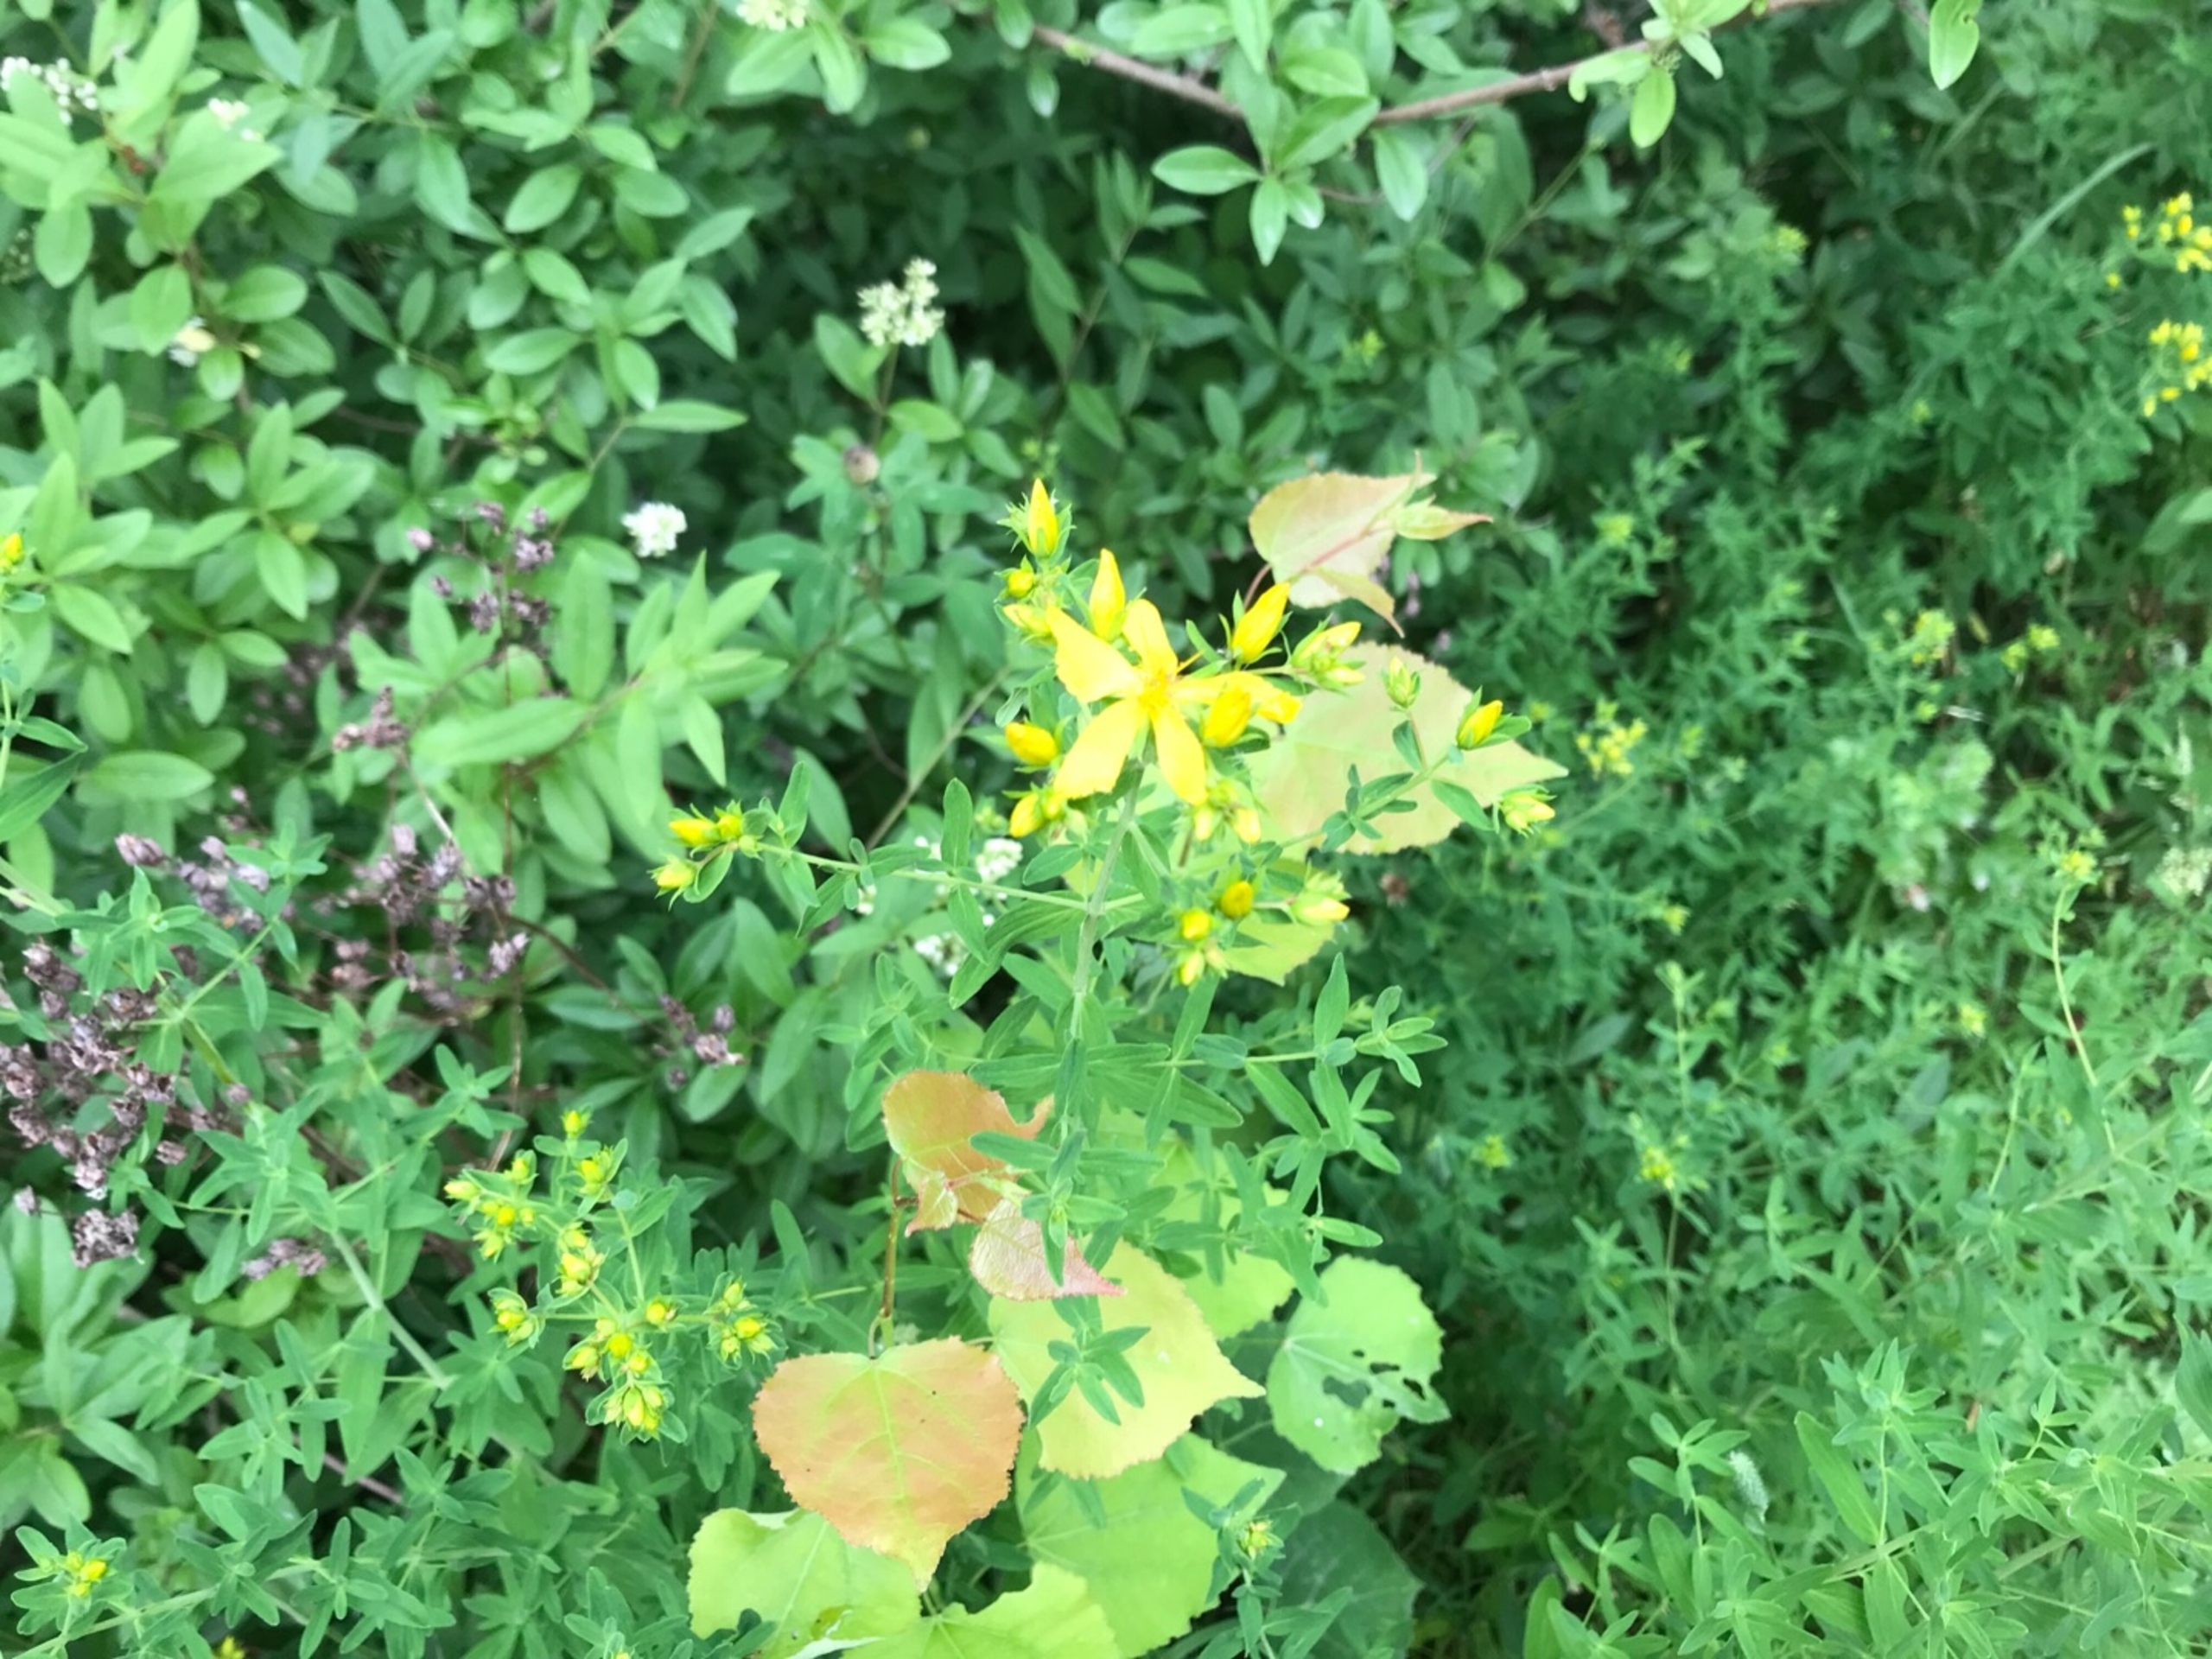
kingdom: Plantae
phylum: Tracheophyta
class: Magnoliopsida
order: Malpighiales
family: Hypericaceae
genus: Hypericum
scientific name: Hypericum perforatum
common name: Prikbladet perikon
